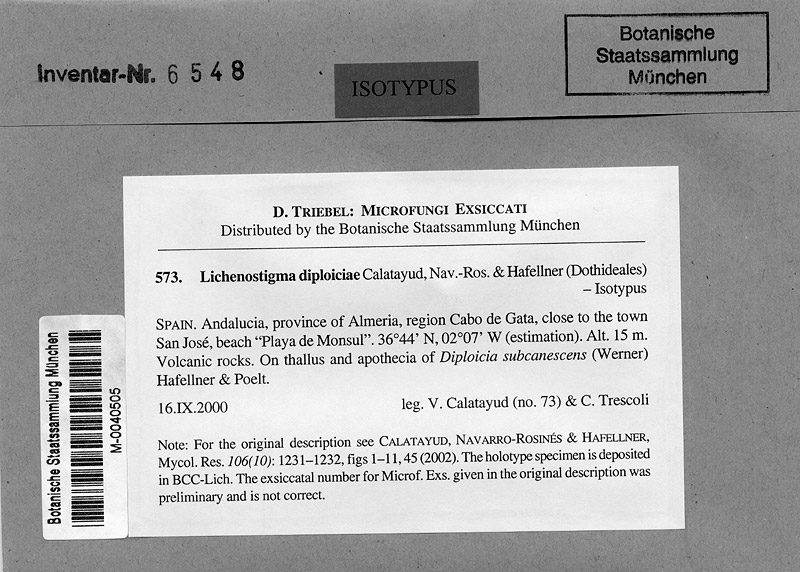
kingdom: Fungi
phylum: Ascomycota
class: Lecanoromycetes
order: Caliciales
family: Caliciaceae
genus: Diploicia
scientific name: Diploicia subcanescens
